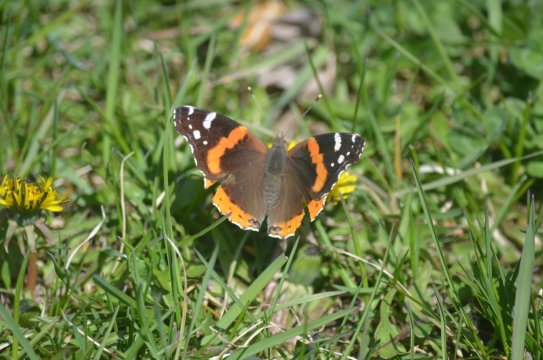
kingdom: Animalia
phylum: Arthropoda
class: Insecta
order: Lepidoptera
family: Nymphalidae
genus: Vanessa
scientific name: Vanessa atalanta
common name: Red Admiral
